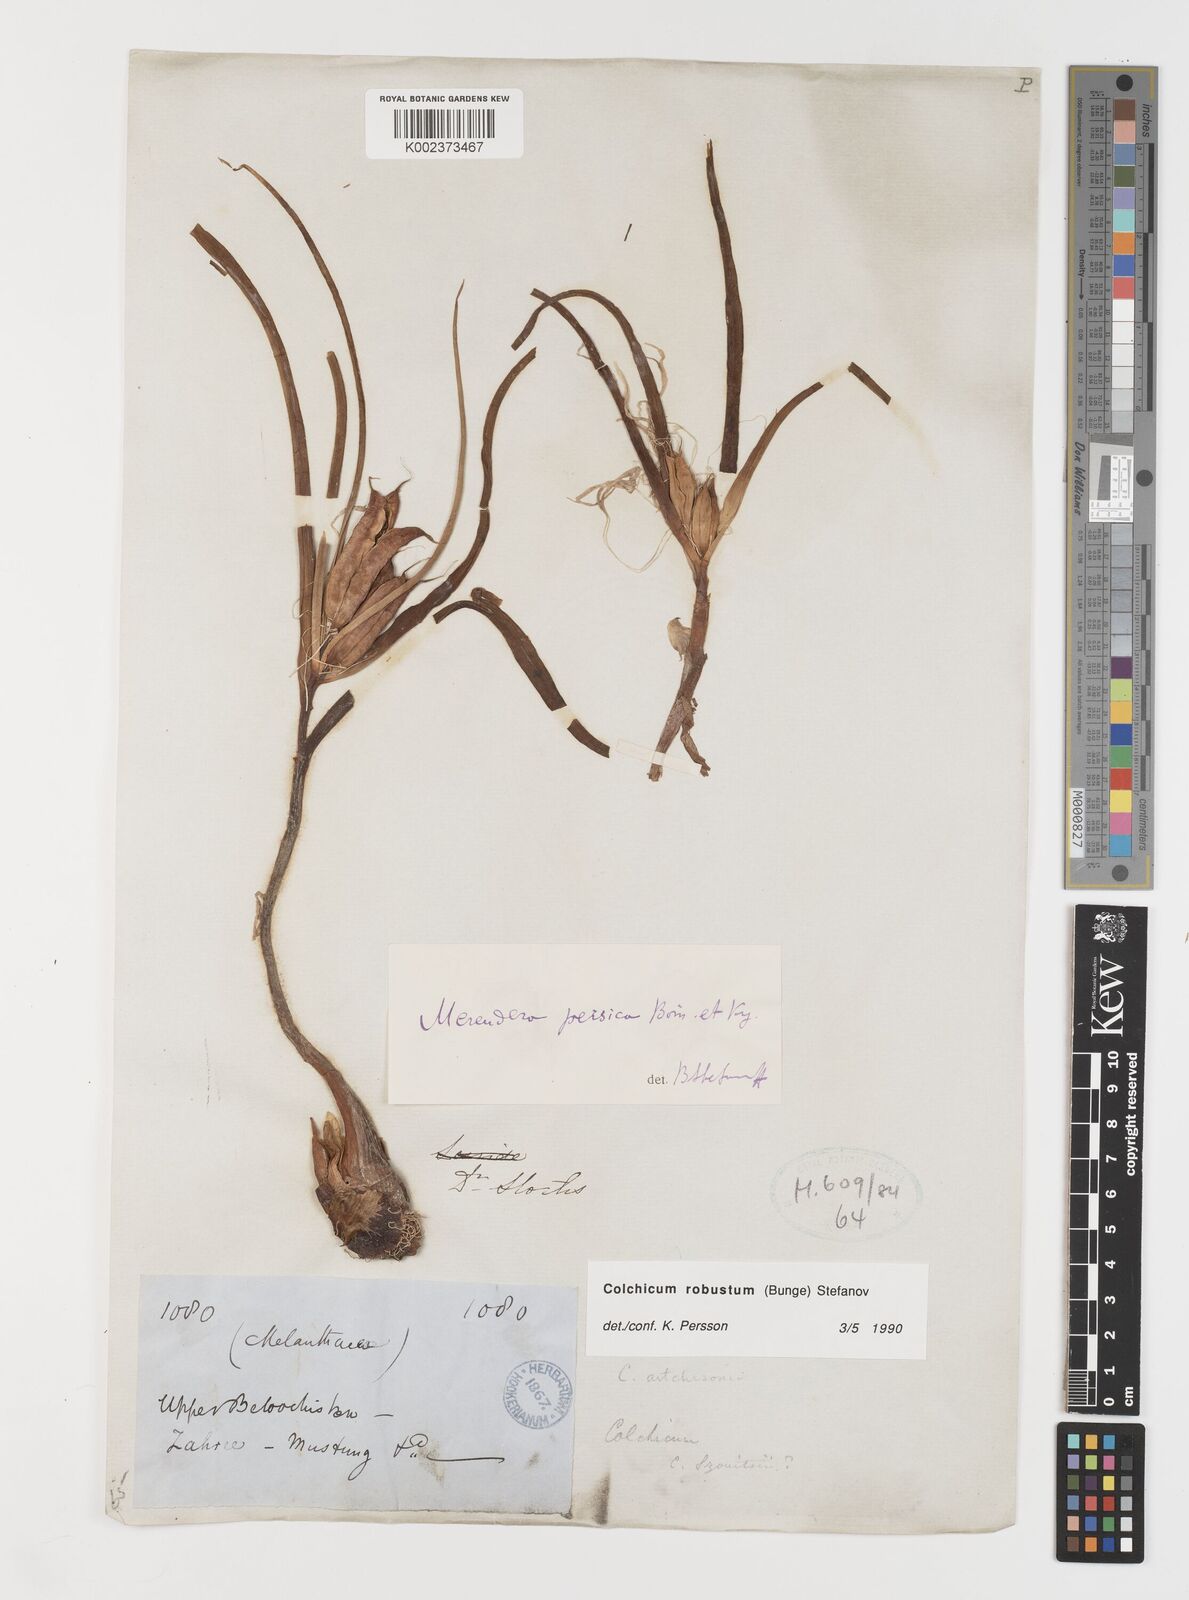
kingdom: Plantae
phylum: Tracheophyta
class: Liliopsida
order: Liliales
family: Colchicaceae
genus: Colchicum
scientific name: Colchicum robustum
